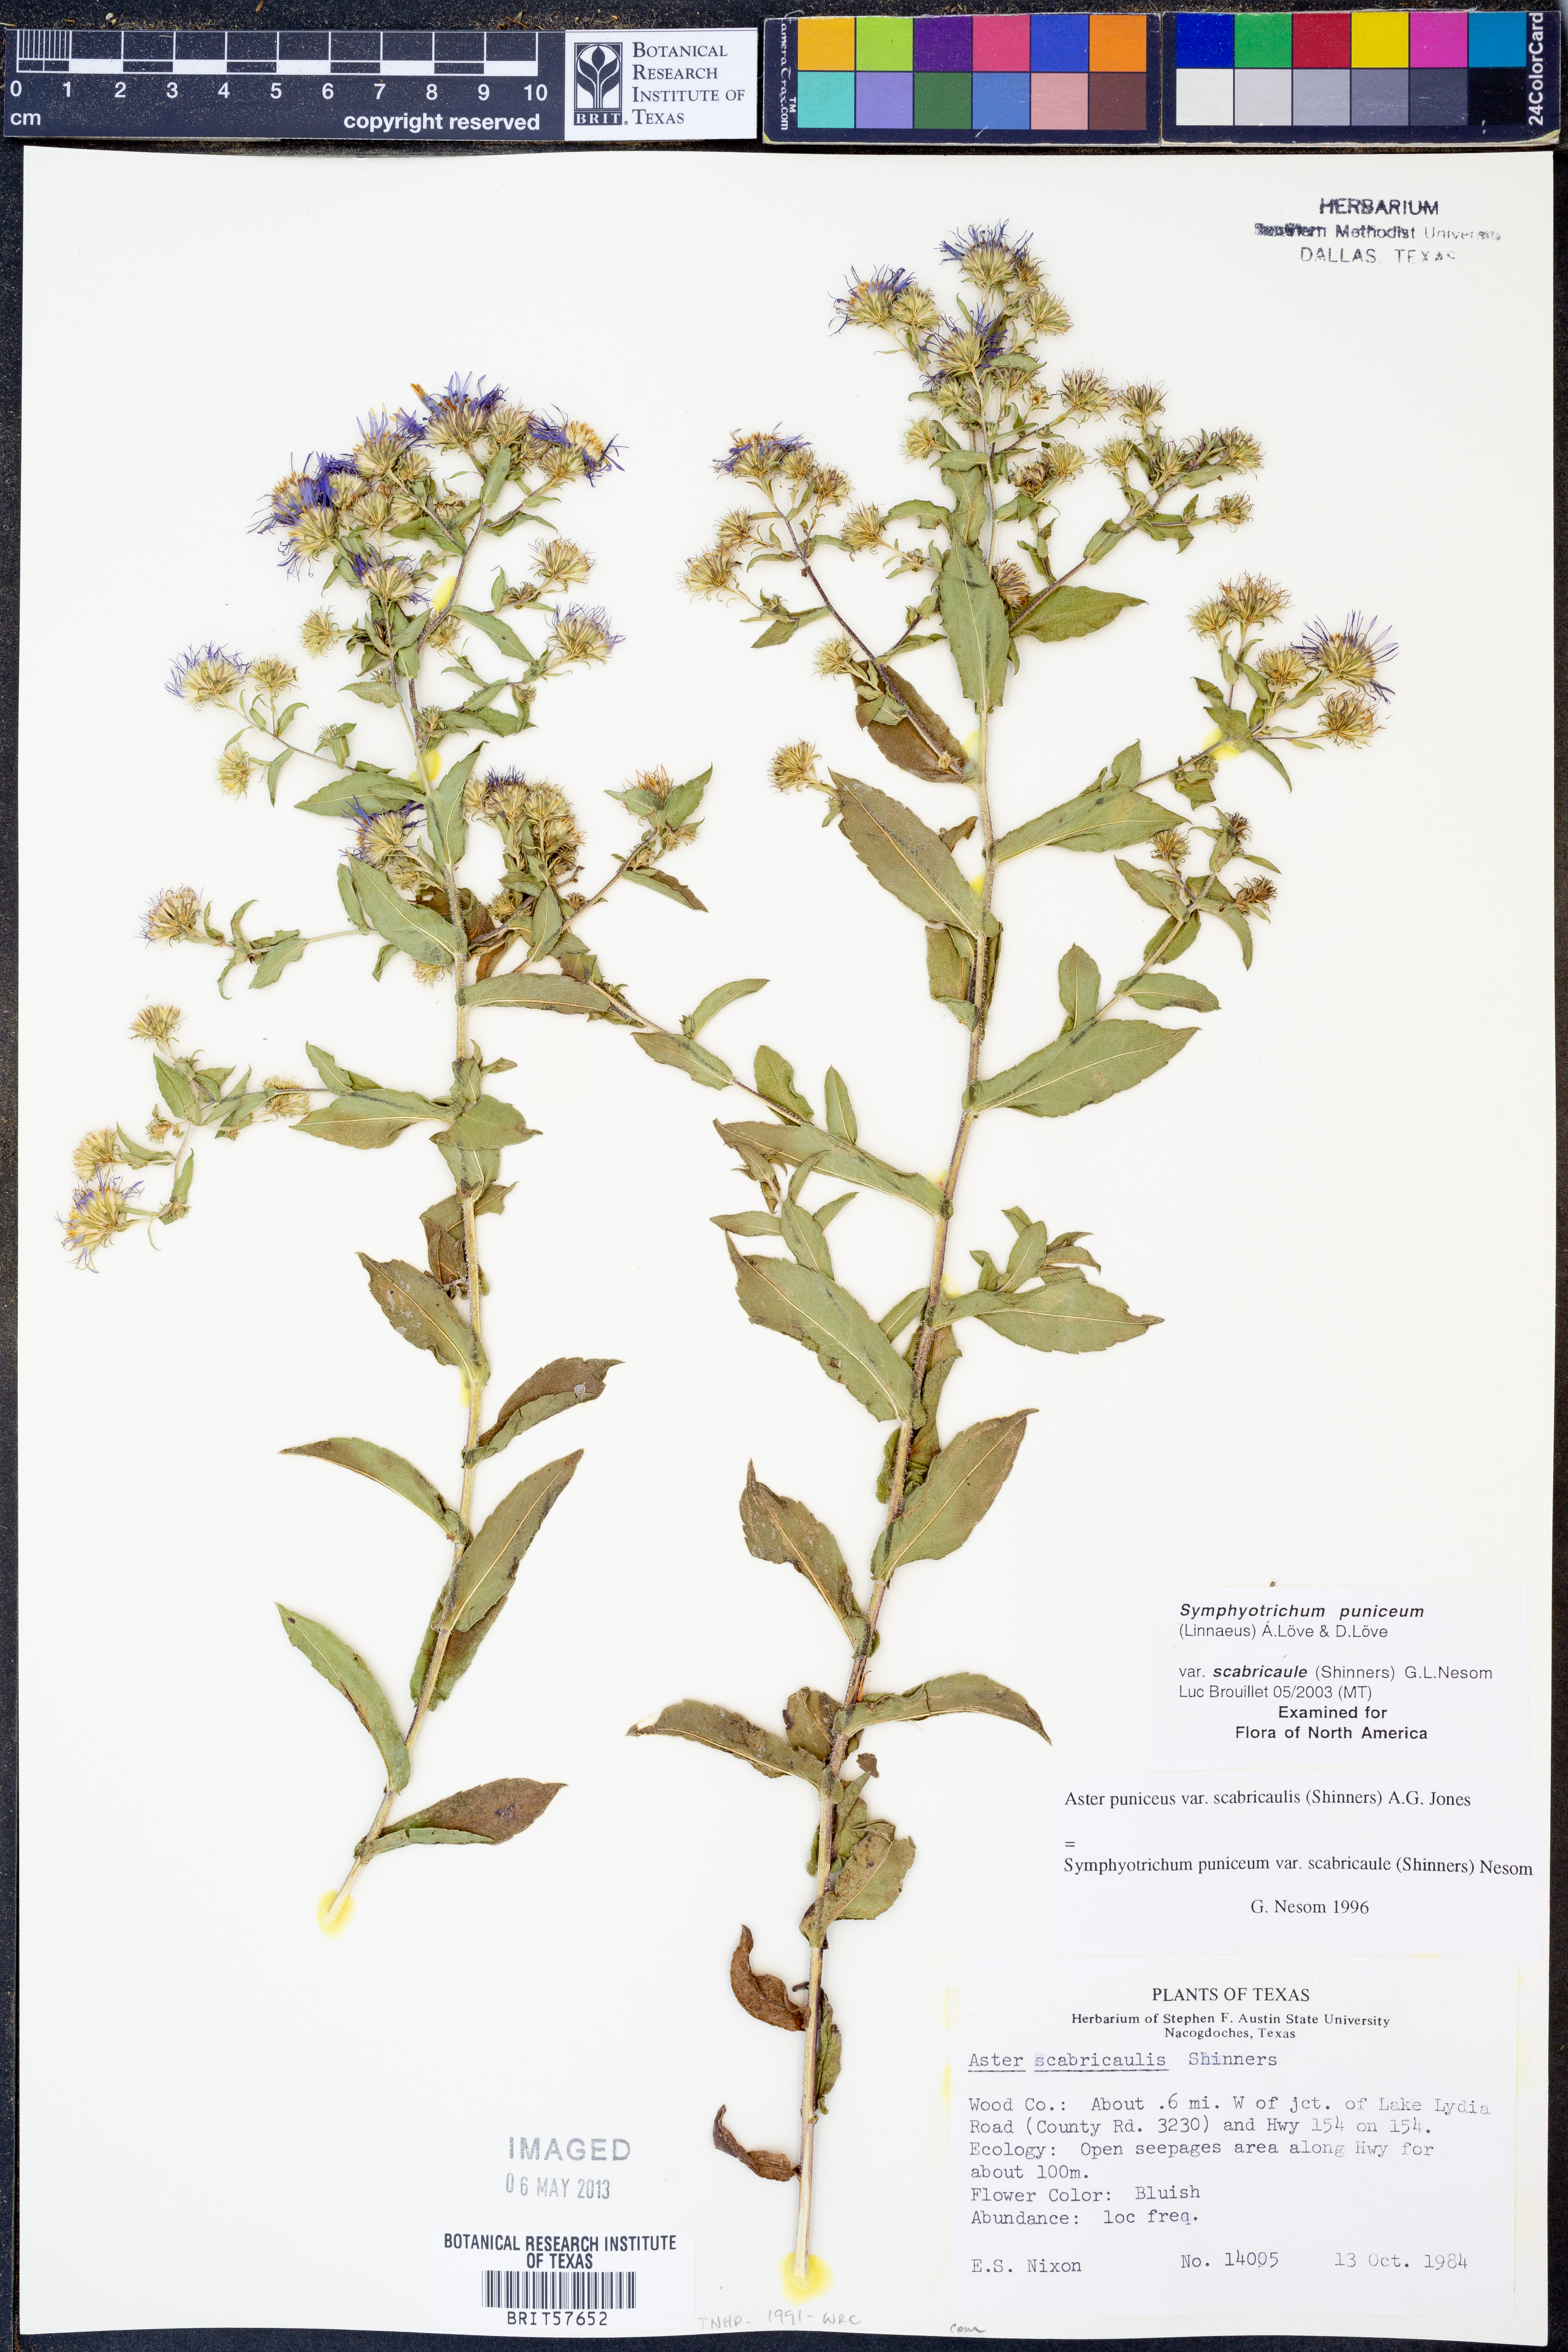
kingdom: Plantae
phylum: Tracheophyta
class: Magnoliopsida
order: Asterales
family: Asteraceae
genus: Symphyotrichum
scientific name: Symphyotrichum puniceum
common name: Bog aster
